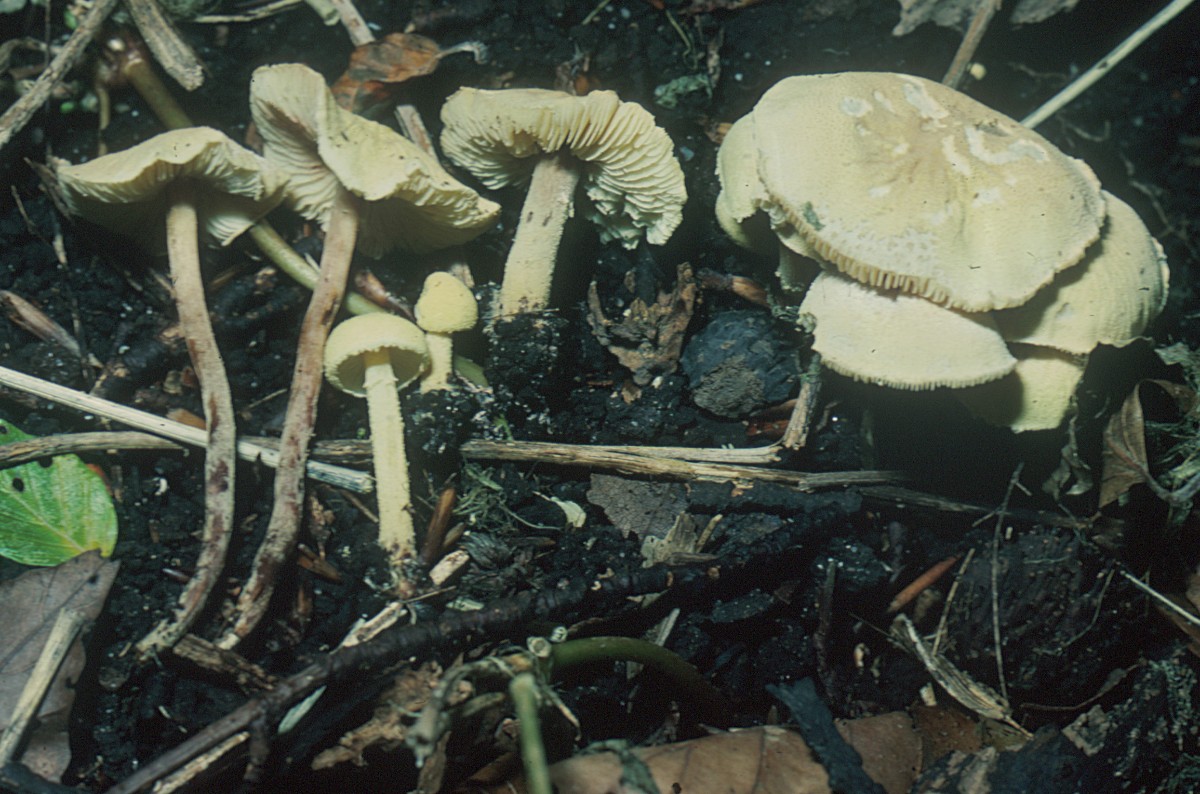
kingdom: Fungi
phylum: Basidiomycota
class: Agaricomycetes
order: Agaricales
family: Agaricaceae
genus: Cystolepiota
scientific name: Cystolepiota icterina
